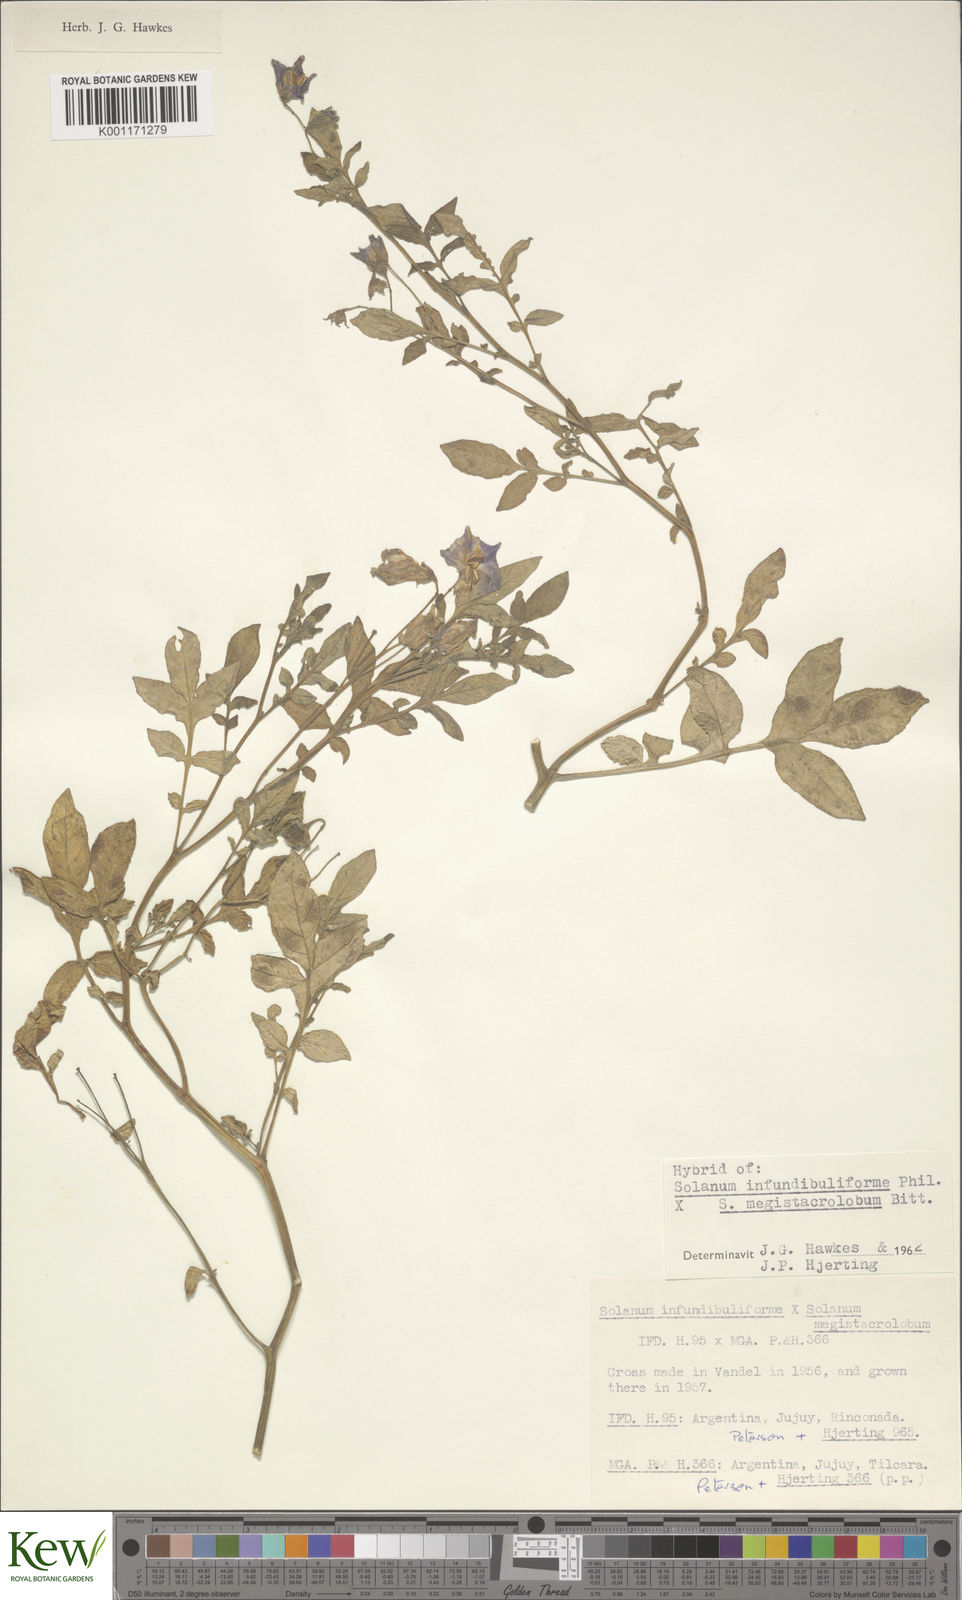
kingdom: Plantae
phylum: Tracheophyta
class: Magnoliopsida
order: Solanales
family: Solanaceae
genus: Solanum
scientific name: Solanum infundibuliforme
